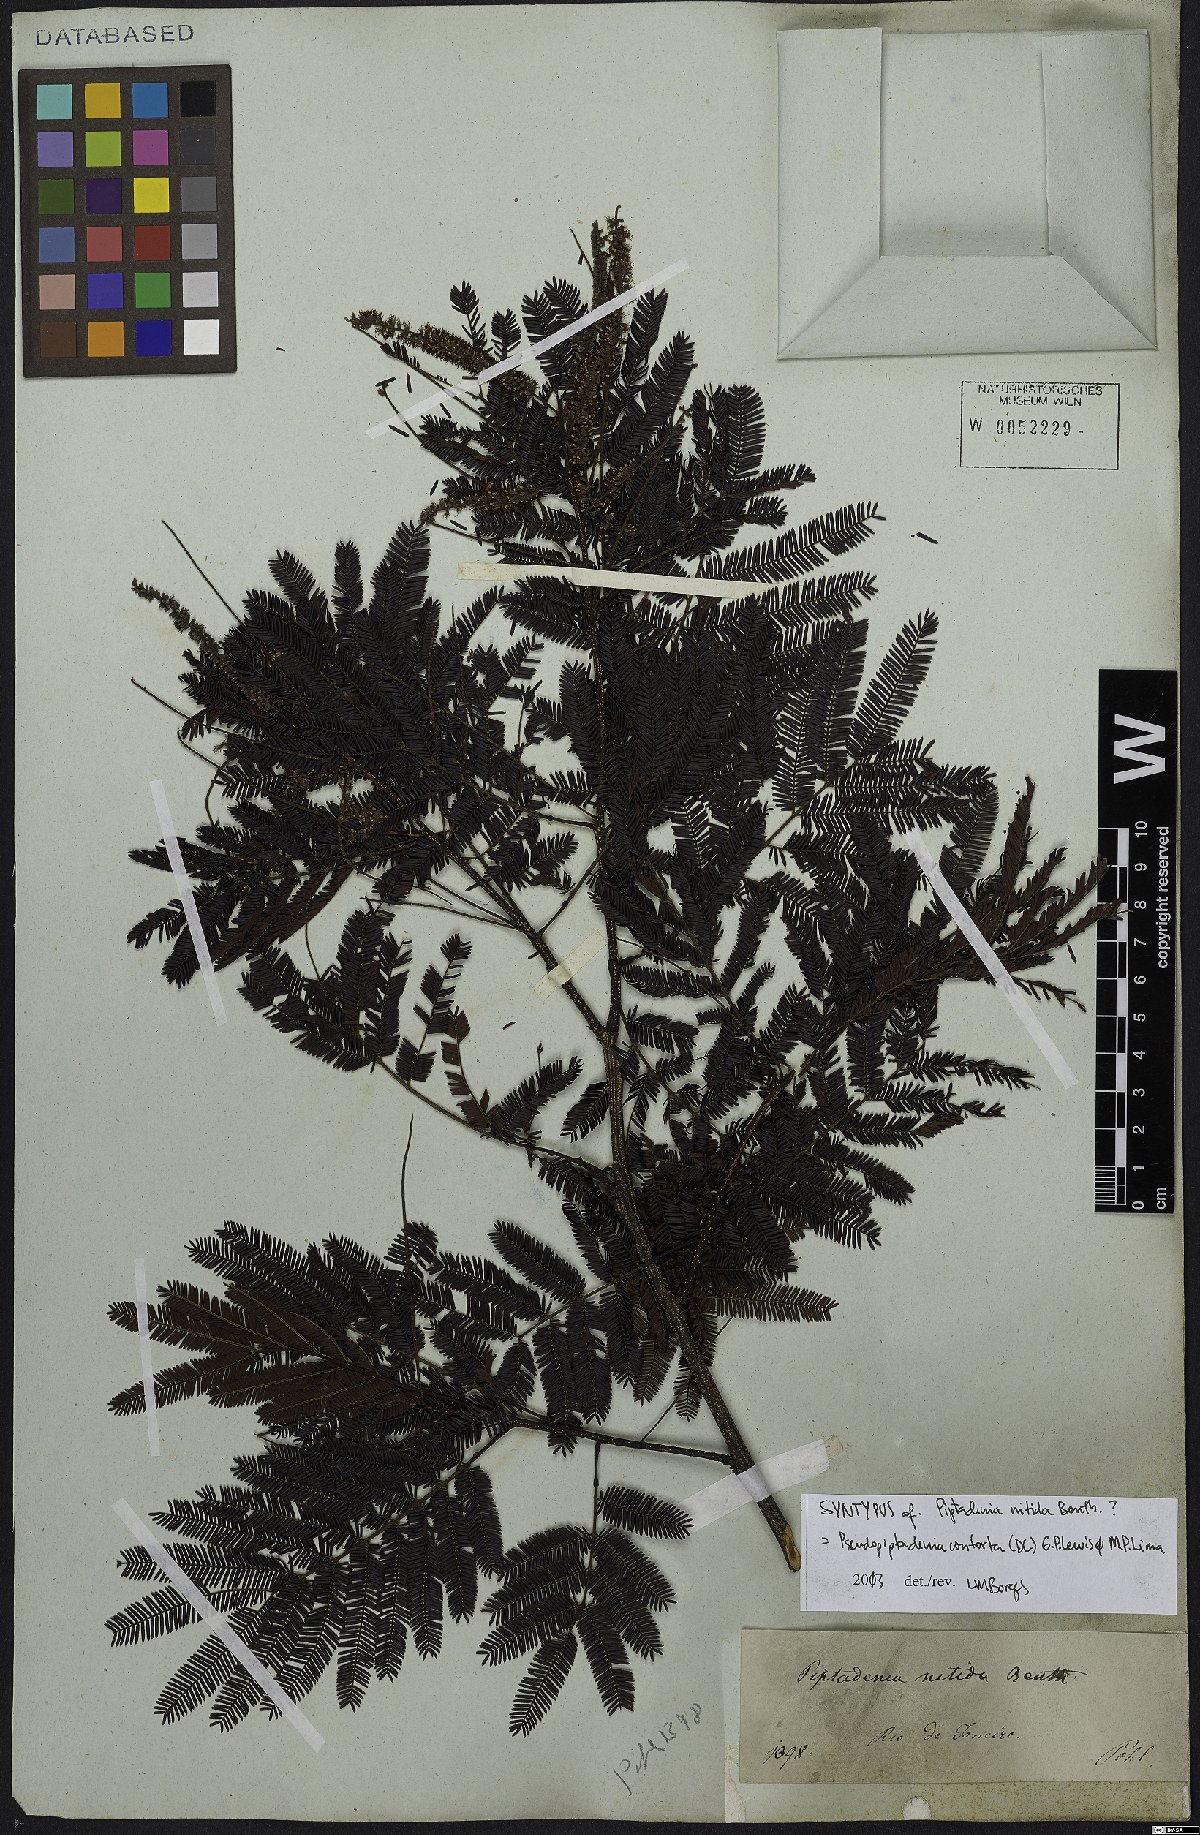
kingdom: Plantae
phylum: Tracheophyta
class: Magnoliopsida
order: Fabales
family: Fabaceae
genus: Pseudopiptadenia
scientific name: Pseudopiptadenia contorta
